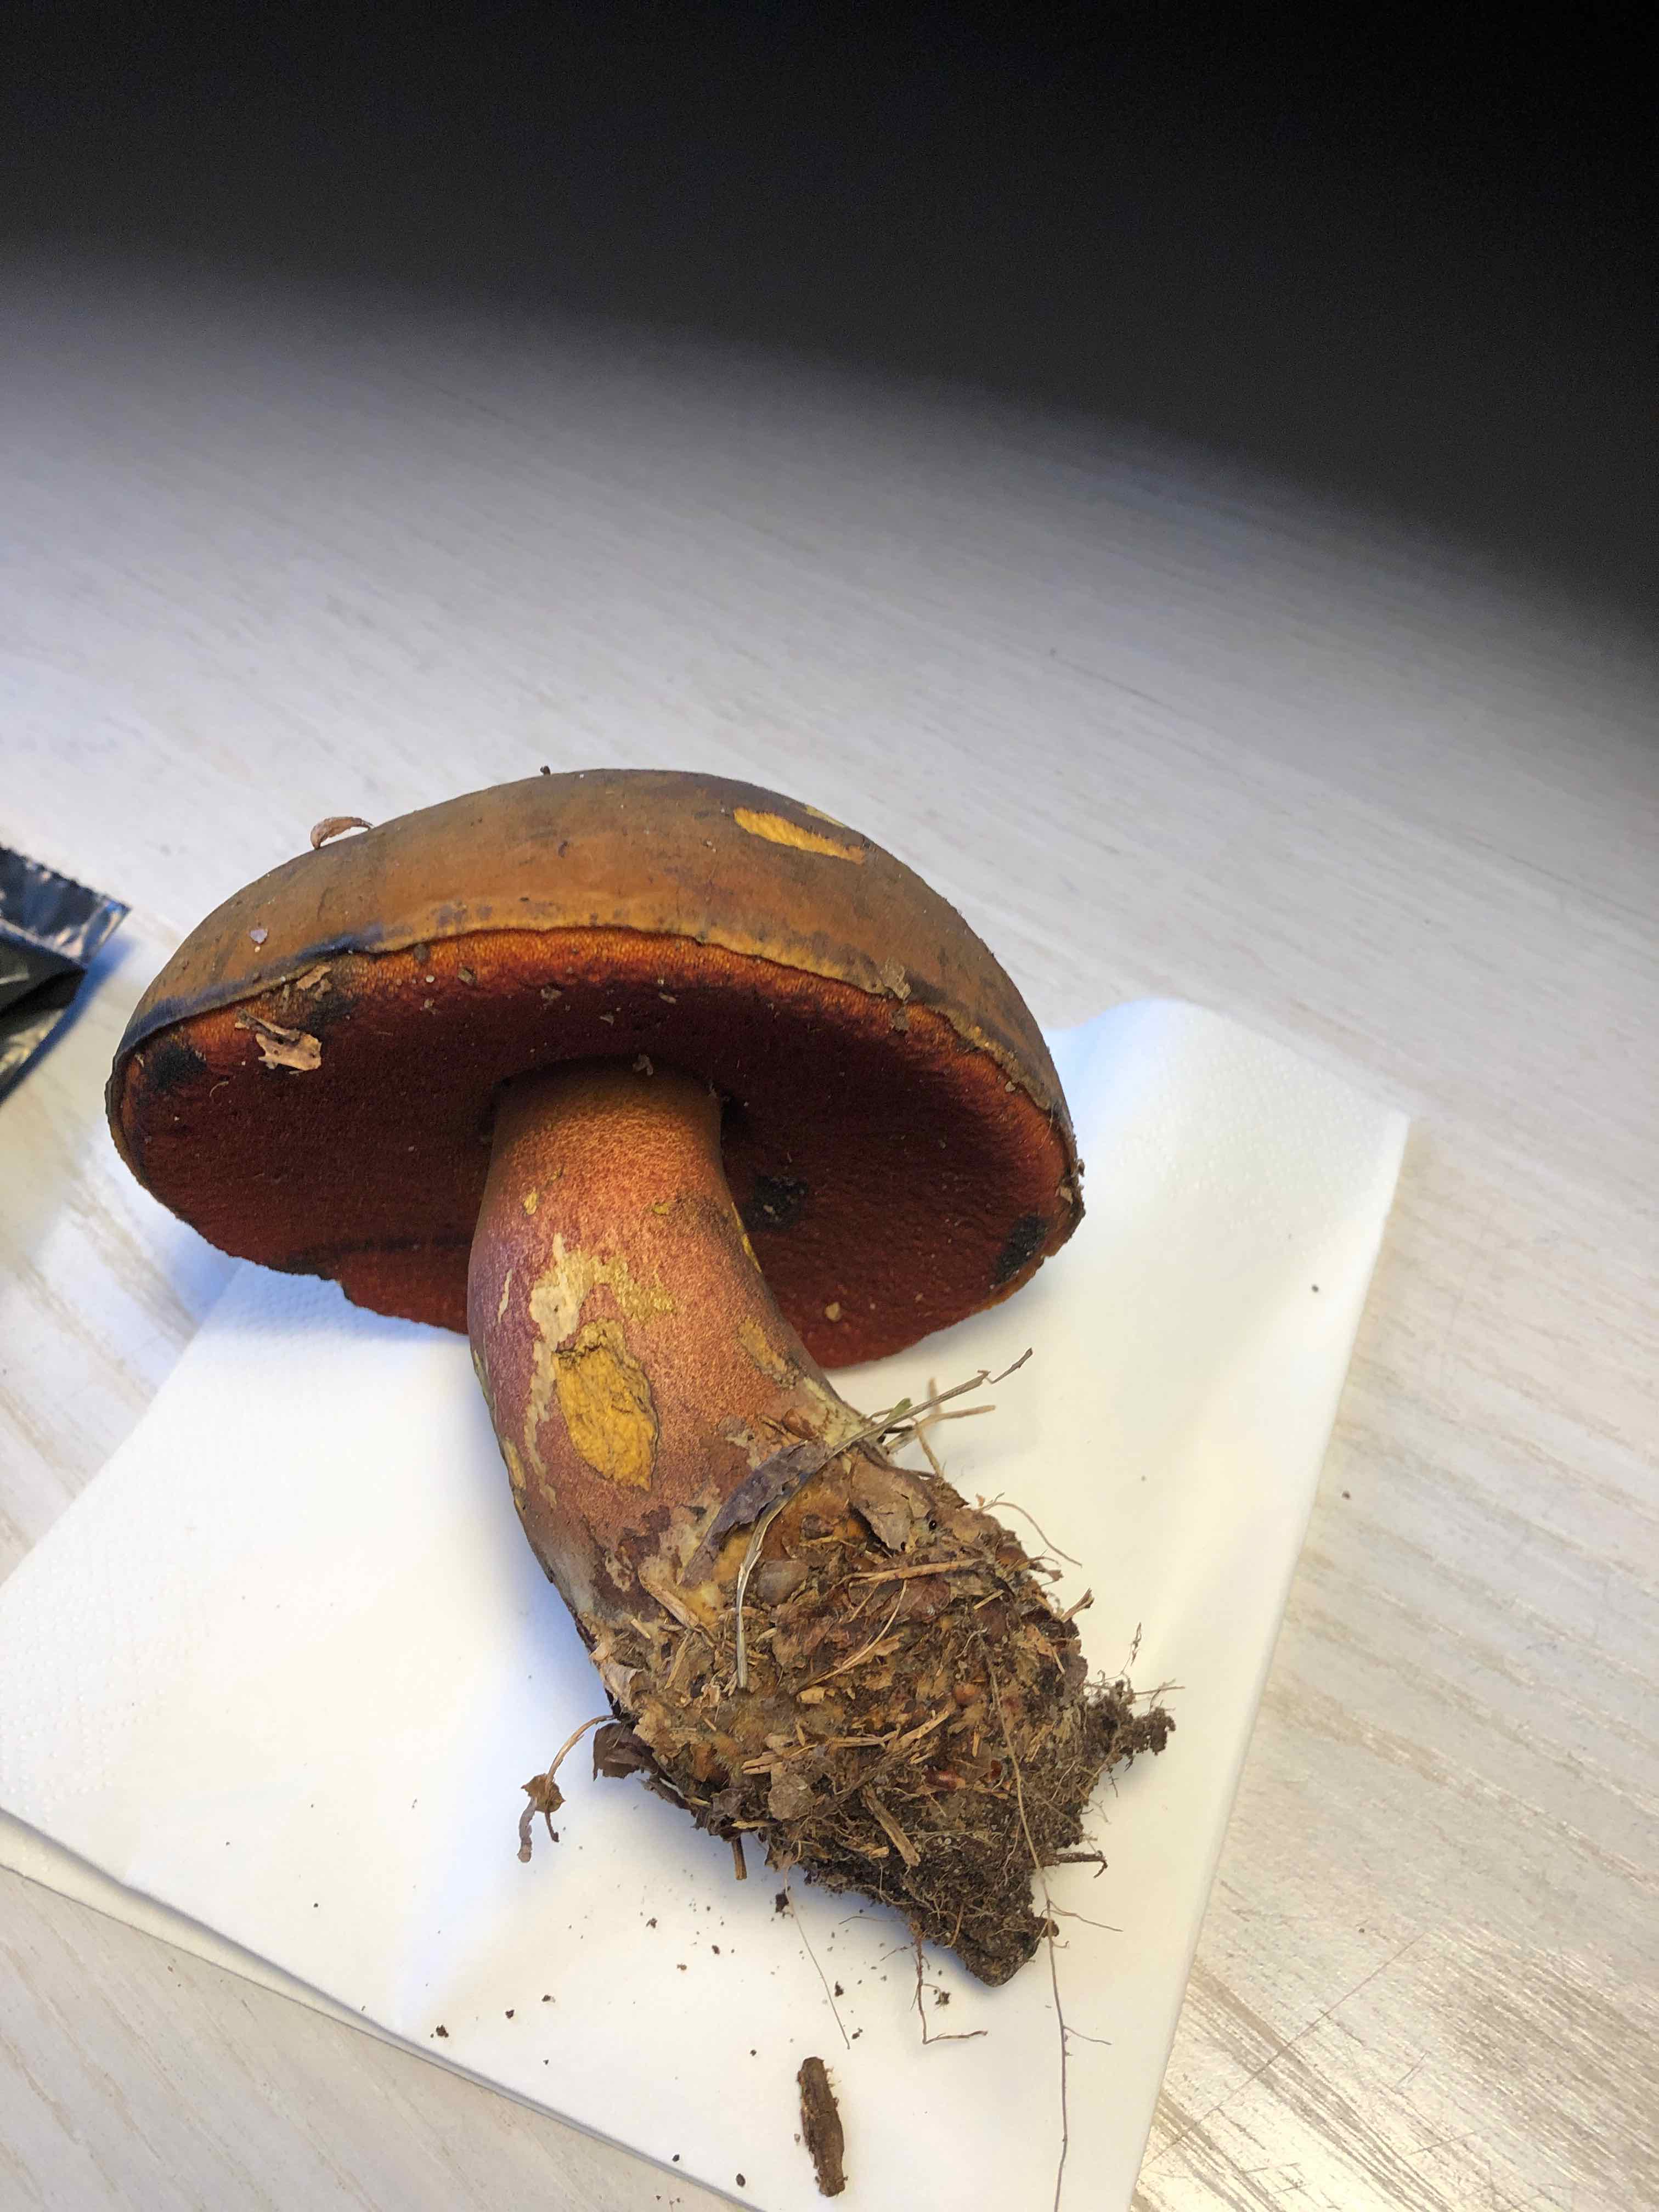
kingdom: Fungi
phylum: Basidiomycota
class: Agaricomycetes
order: Boletales
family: Boletaceae
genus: Neoboletus
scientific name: Neoboletus erythropus
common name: punktstokket indigorørhat
